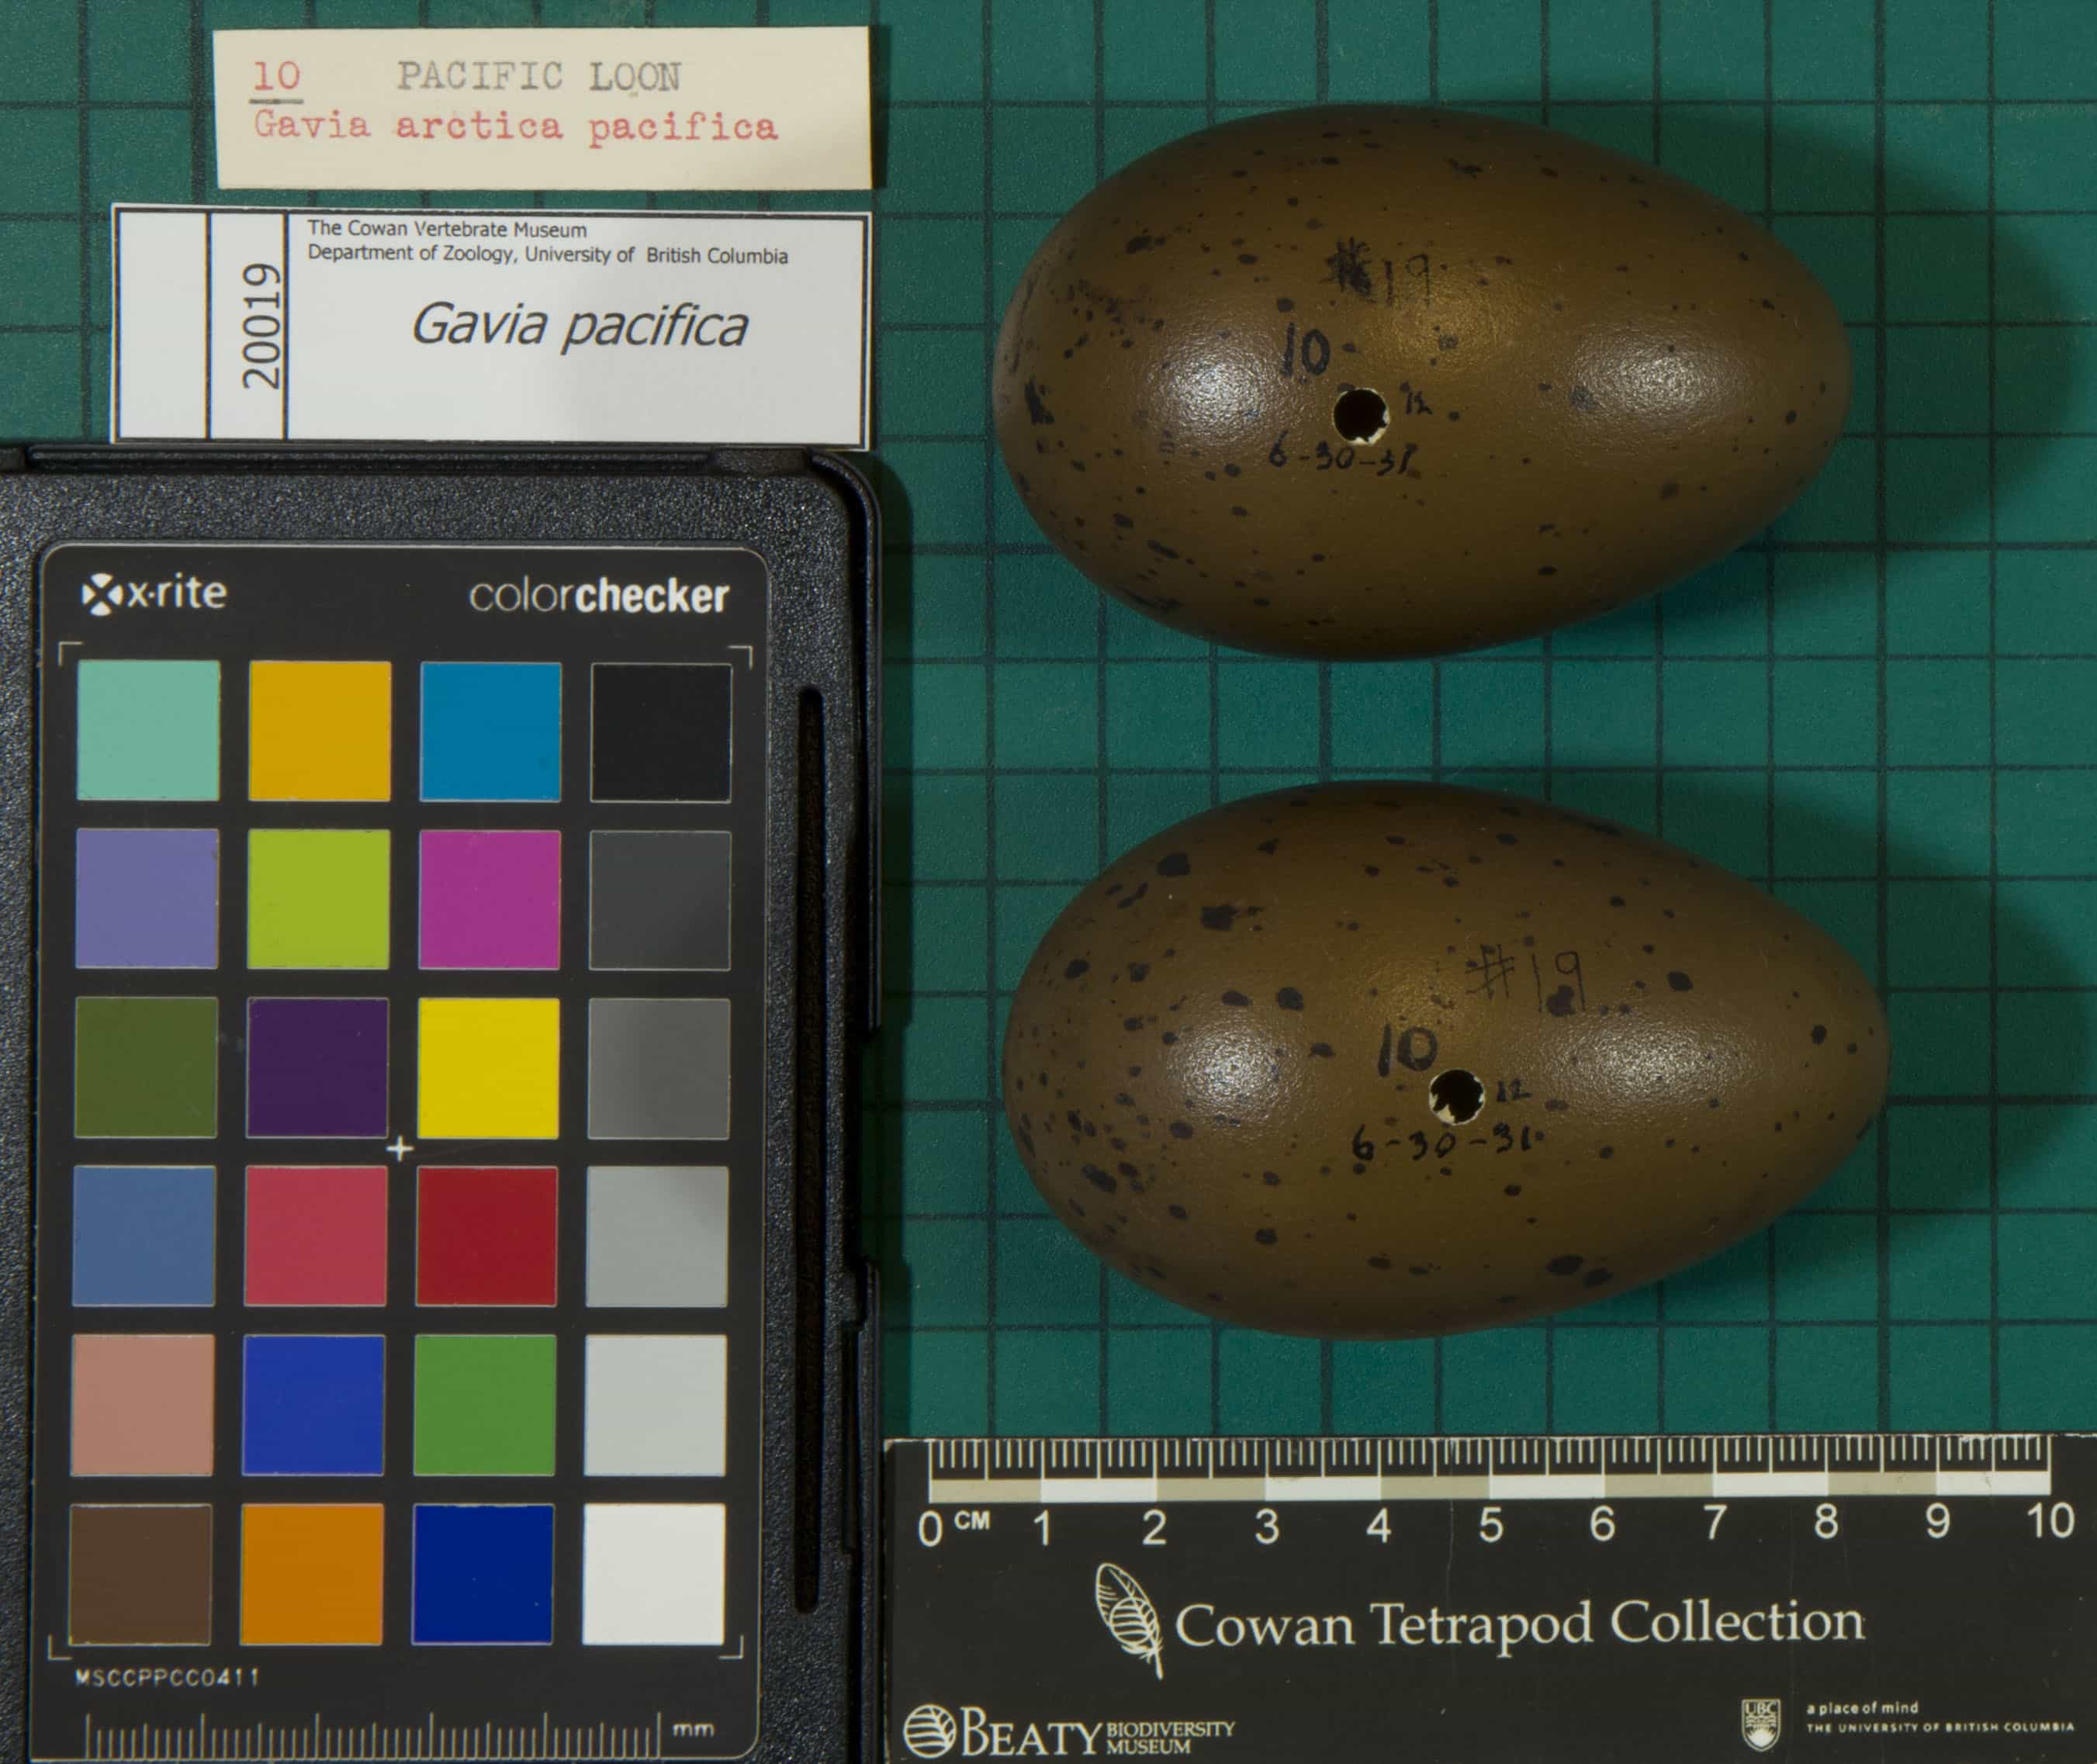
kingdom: Animalia
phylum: Chordata
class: Aves
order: Gaviiformes
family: Gaviidae
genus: Gavia
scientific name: Gavia pacifica
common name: Pacific Loon
